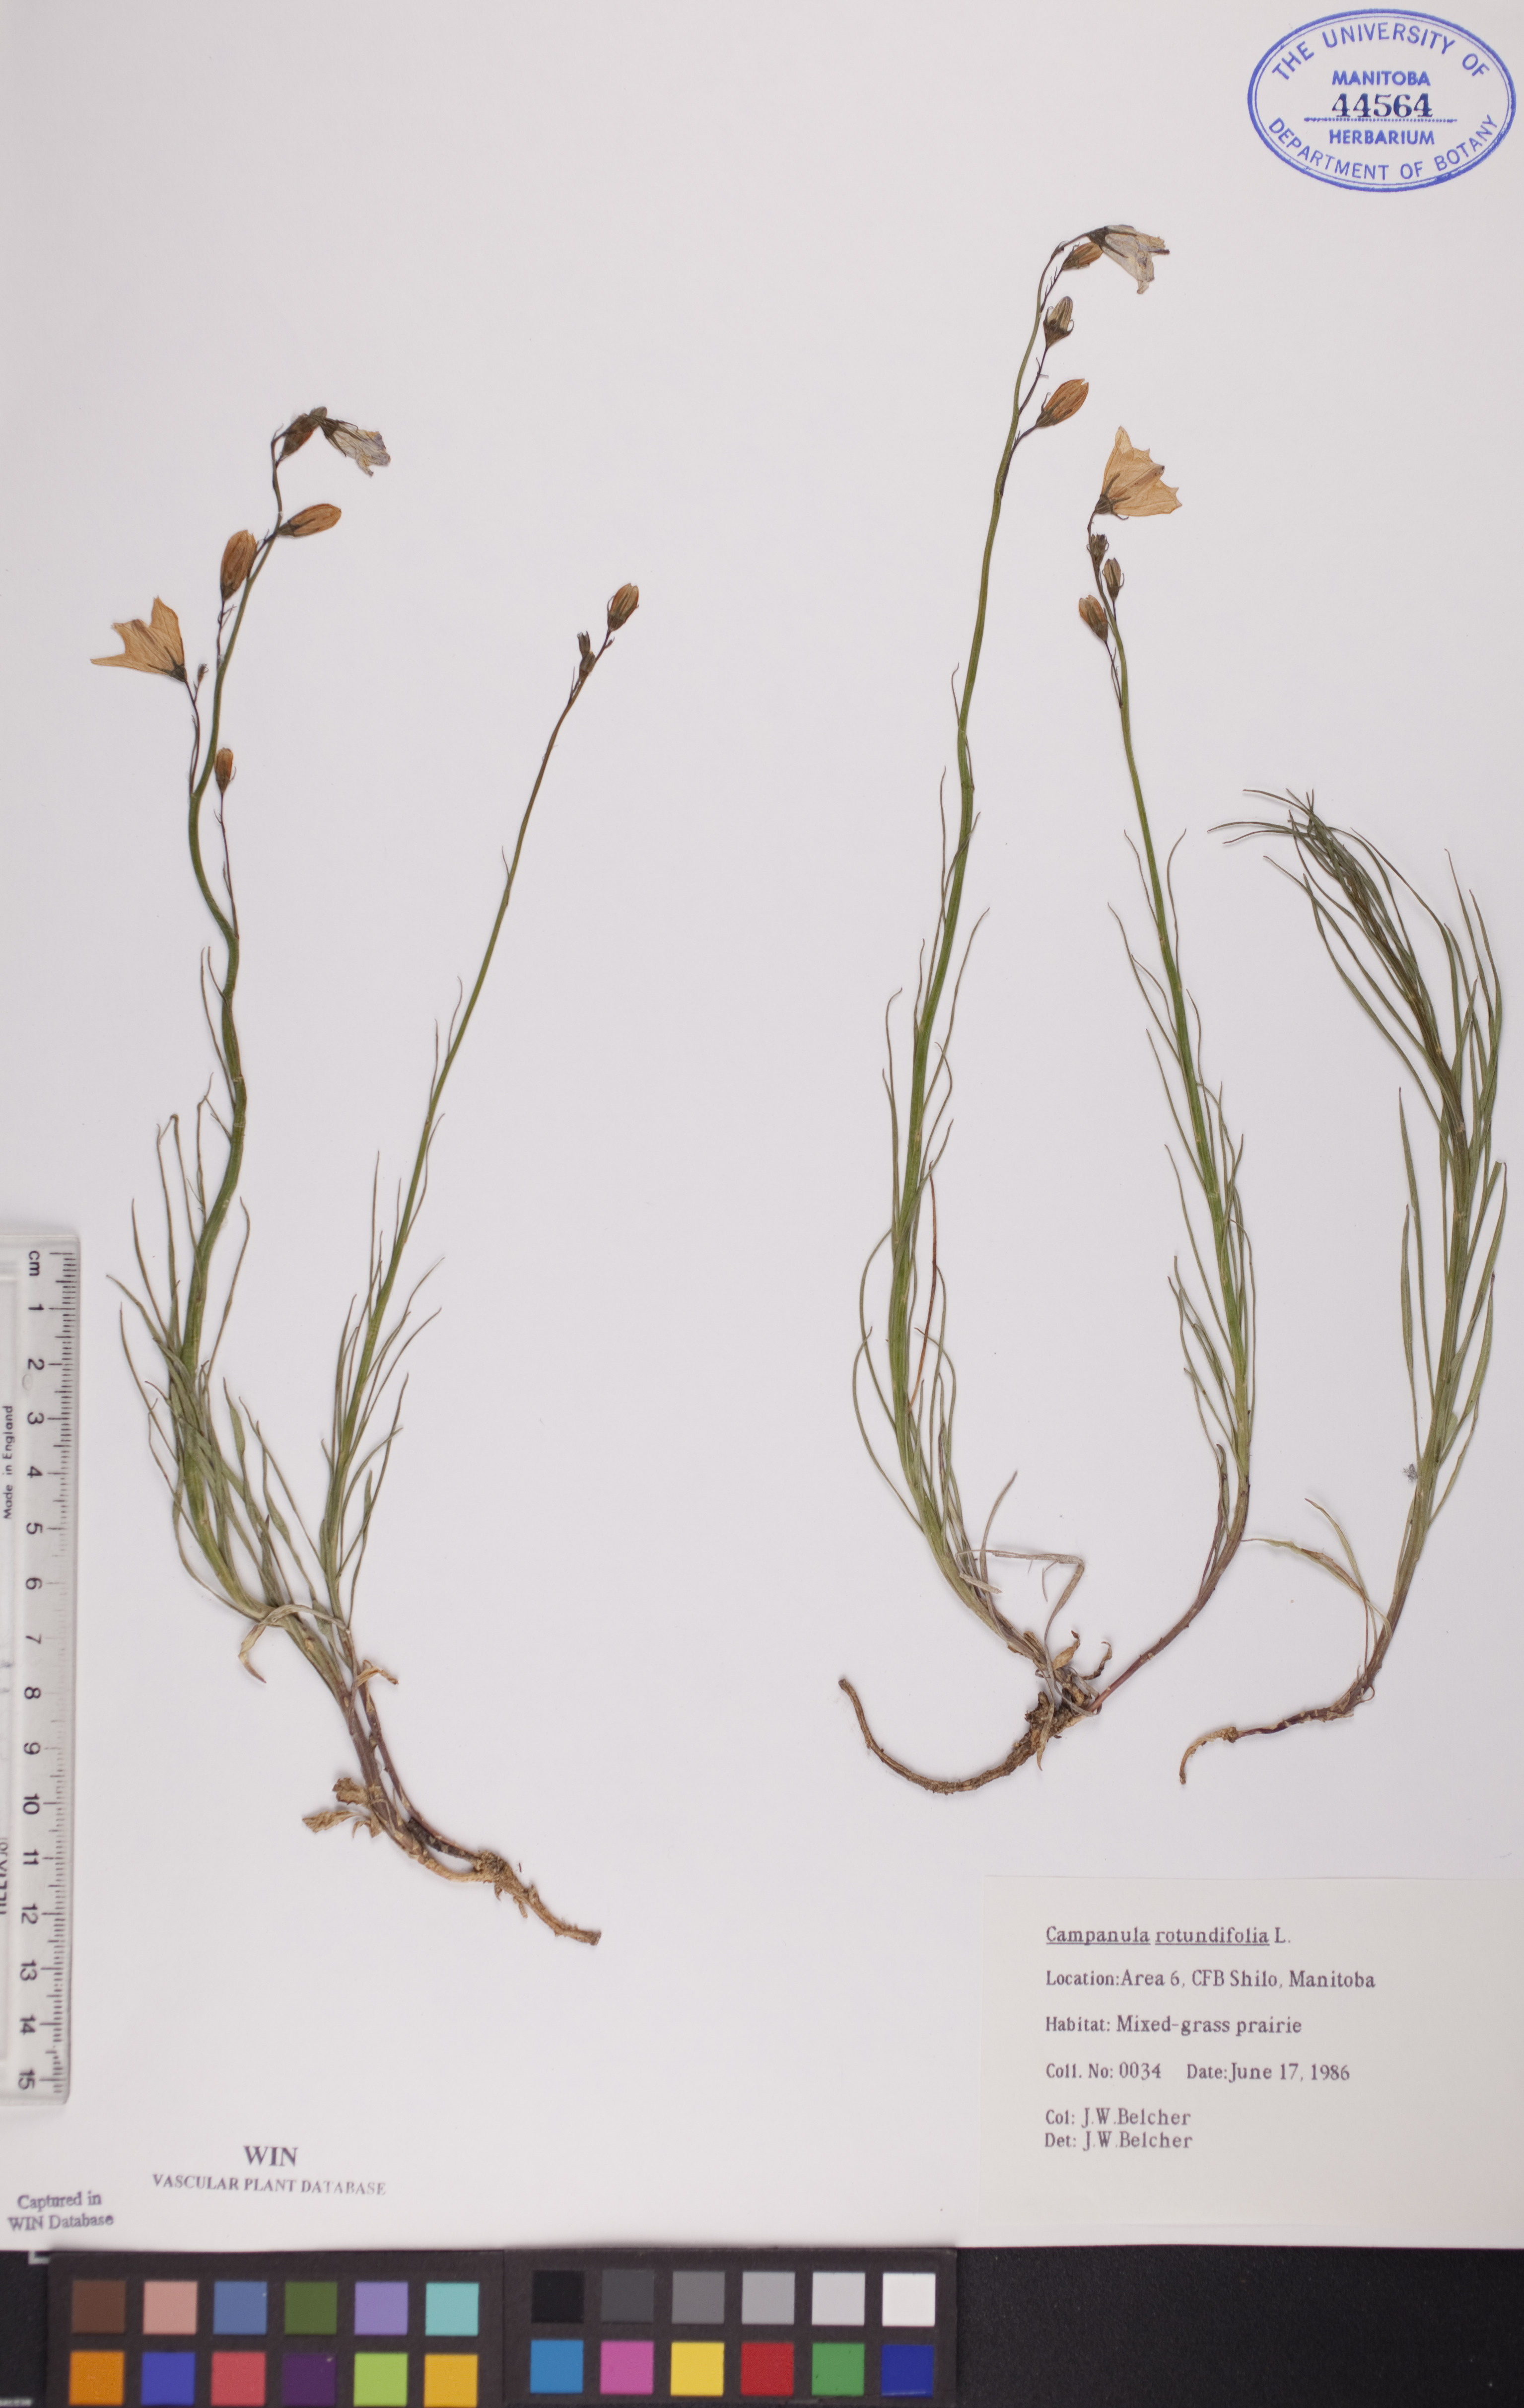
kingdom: Plantae
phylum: Tracheophyta
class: Magnoliopsida
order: Asterales
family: Campanulaceae
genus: Campanula
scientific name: Campanula rotundifolia
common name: Harebell
